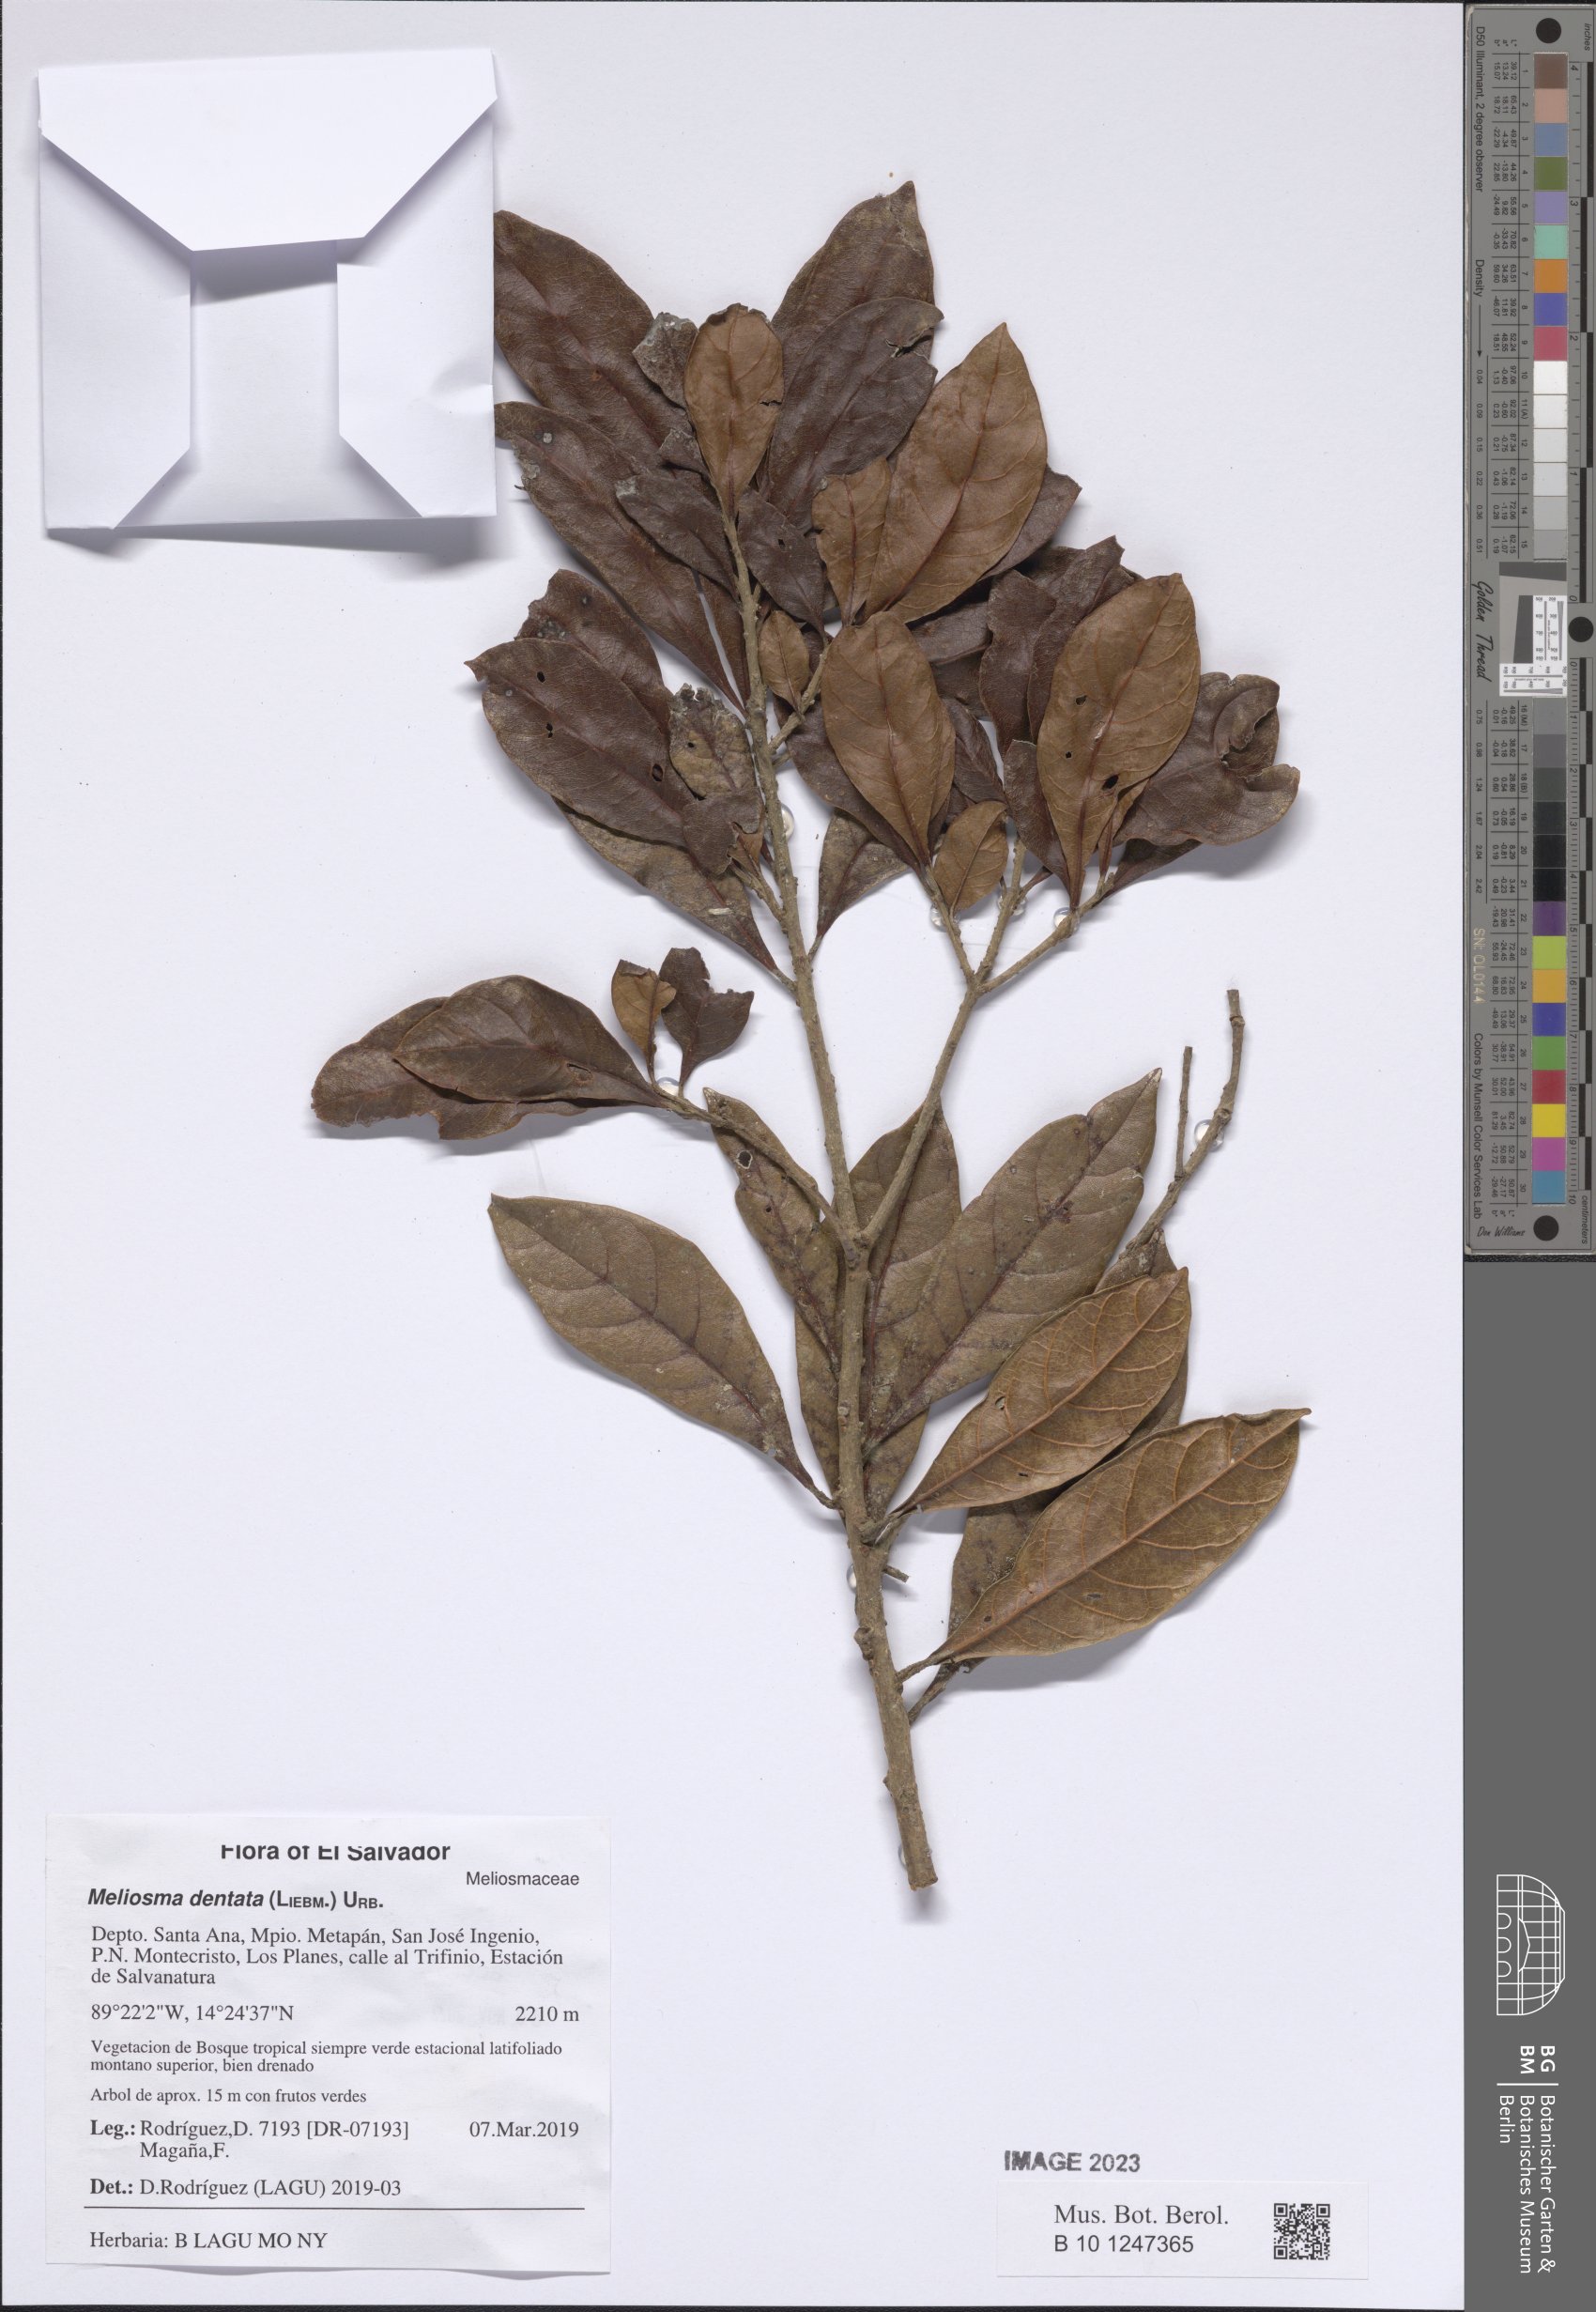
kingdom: Plantae
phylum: Tracheophyta
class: Magnoliopsida
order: Proteales
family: Sabiaceae
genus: Meliosma
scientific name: Meliosma dentata
